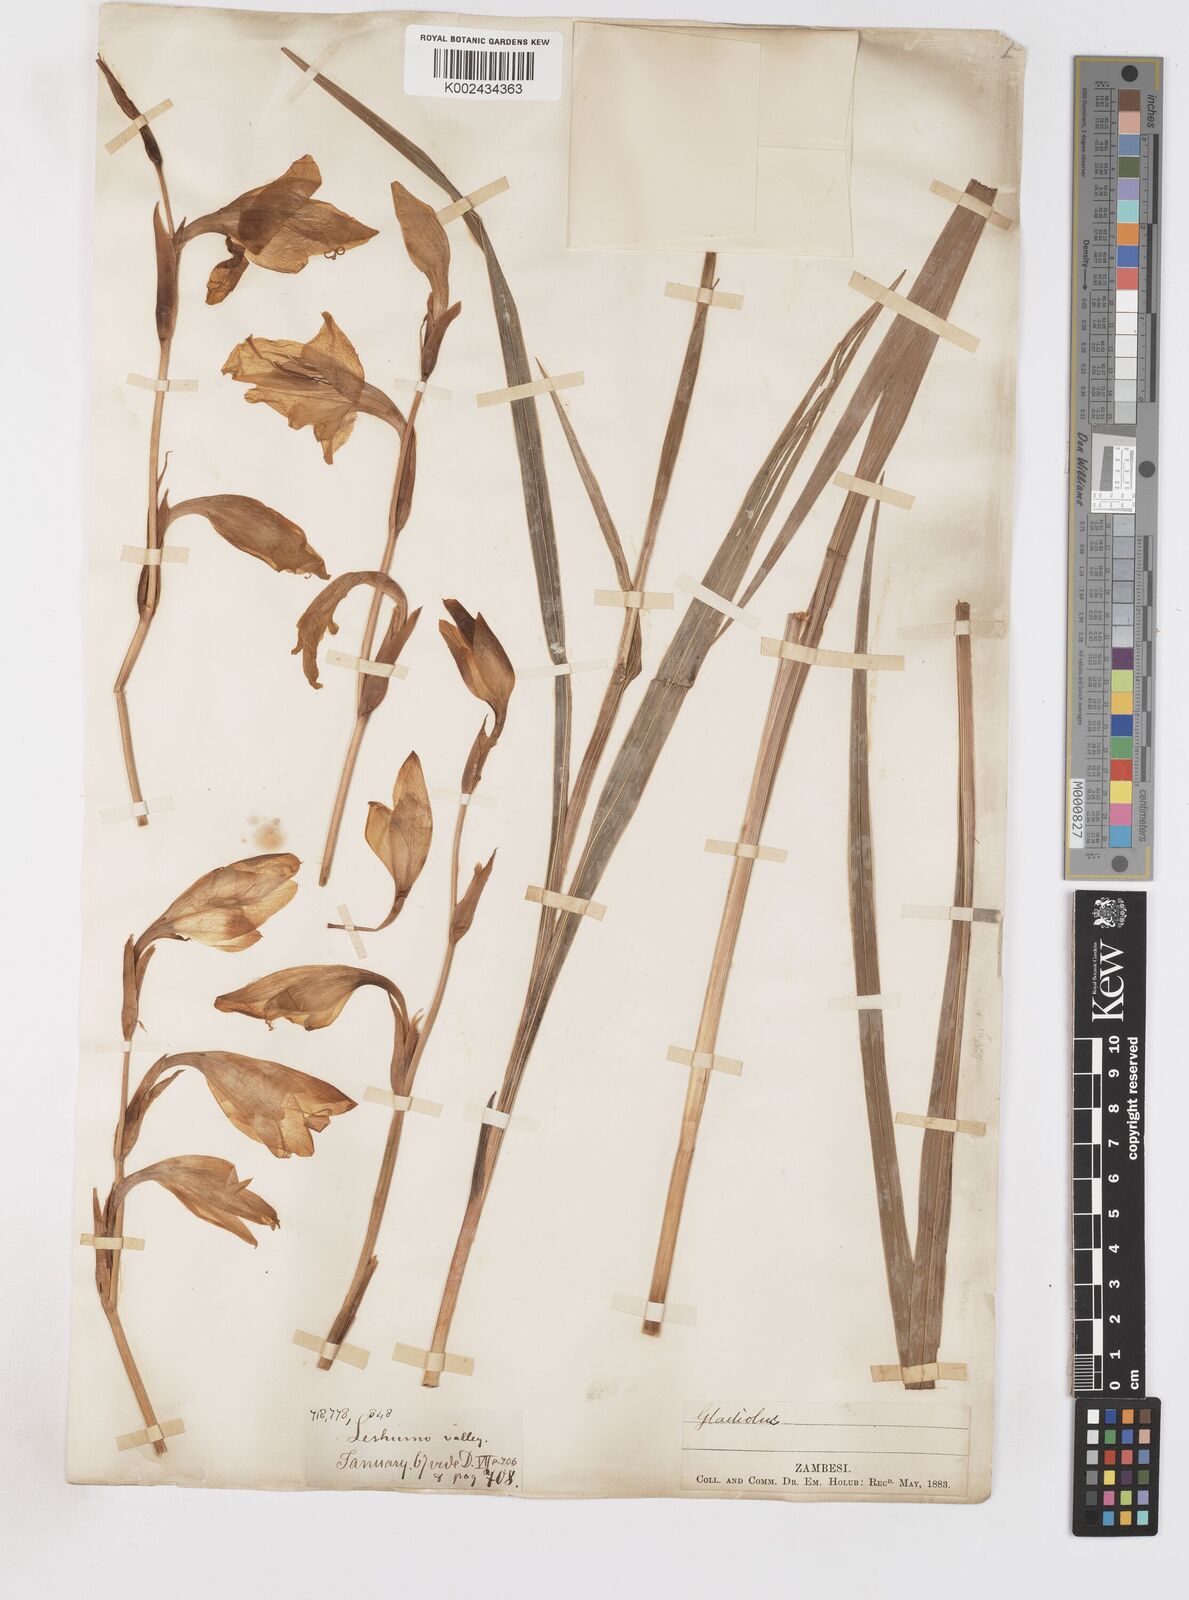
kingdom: Plantae
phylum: Tracheophyta
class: Liliopsida
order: Asparagales
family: Iridaceae
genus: Gladiolus
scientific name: Gladiolus dalenii
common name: Cornflag
